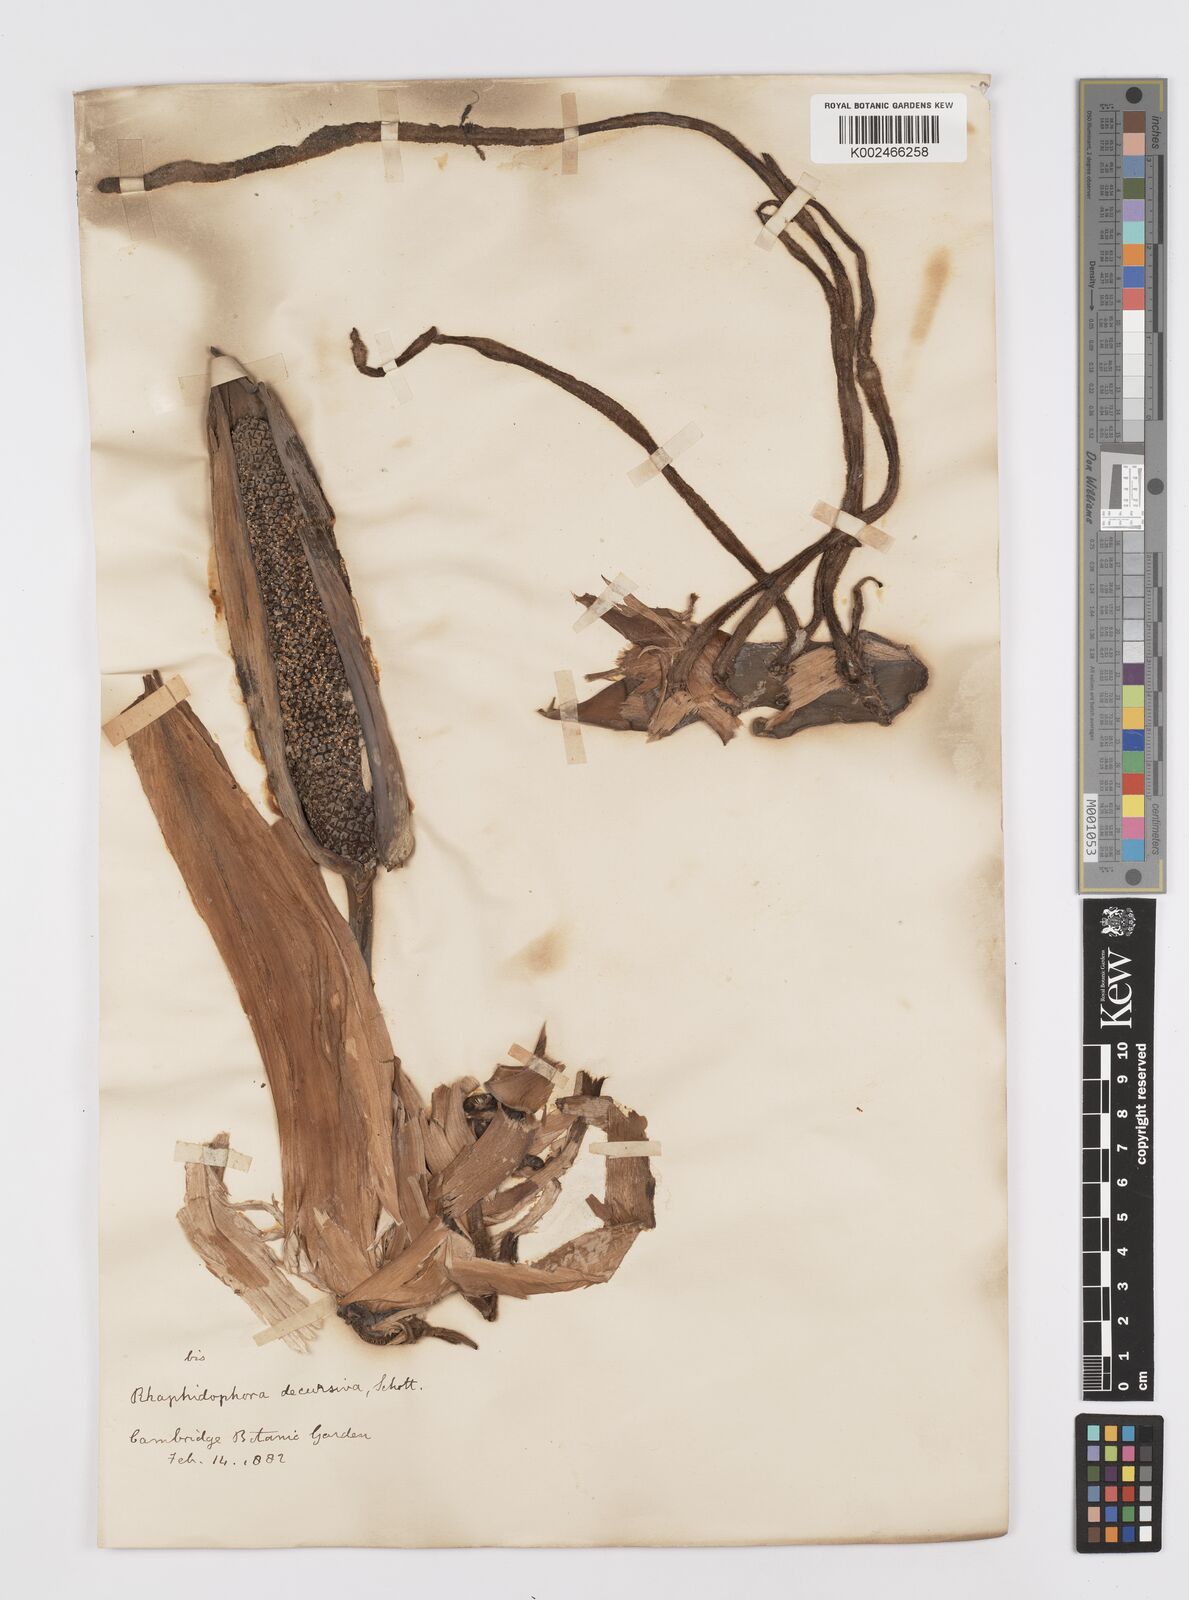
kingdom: Plantae
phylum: Tracheophyta
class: Liliopsida
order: Alismatales
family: Araceae
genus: Rhaphidophora
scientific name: Rhaphidophora decursiva
